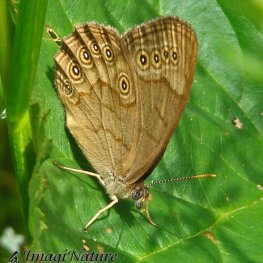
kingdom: Animalia
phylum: Arthropoda
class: Insecta
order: Lepidoptera
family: Nymphalidae
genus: Lethe
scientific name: Lethe eurydice
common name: Eyed Brown
